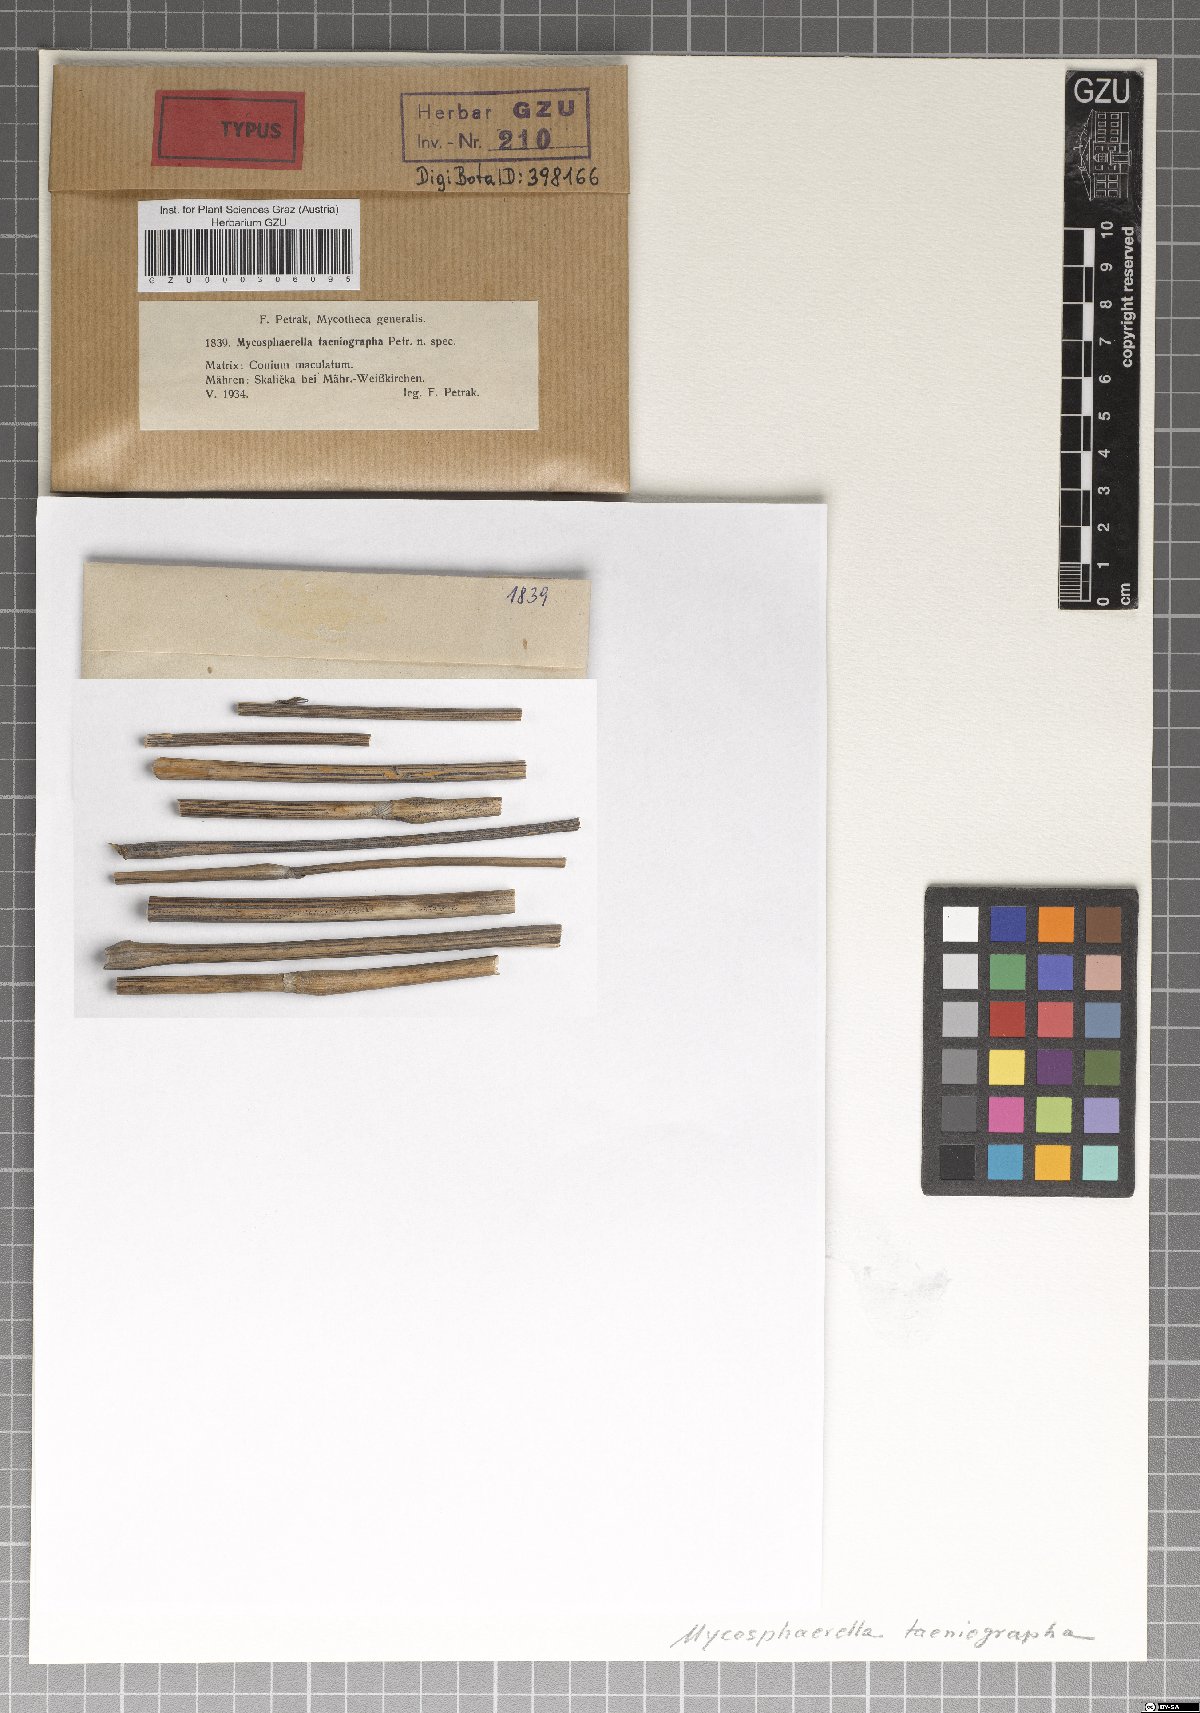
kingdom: Fungi
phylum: Ascomycota
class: Dothideomycetes
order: Mycosphaerellales
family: Mycosphaerellaceae
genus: Mycosphaerella
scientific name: Mycosphaerella taeniographa
